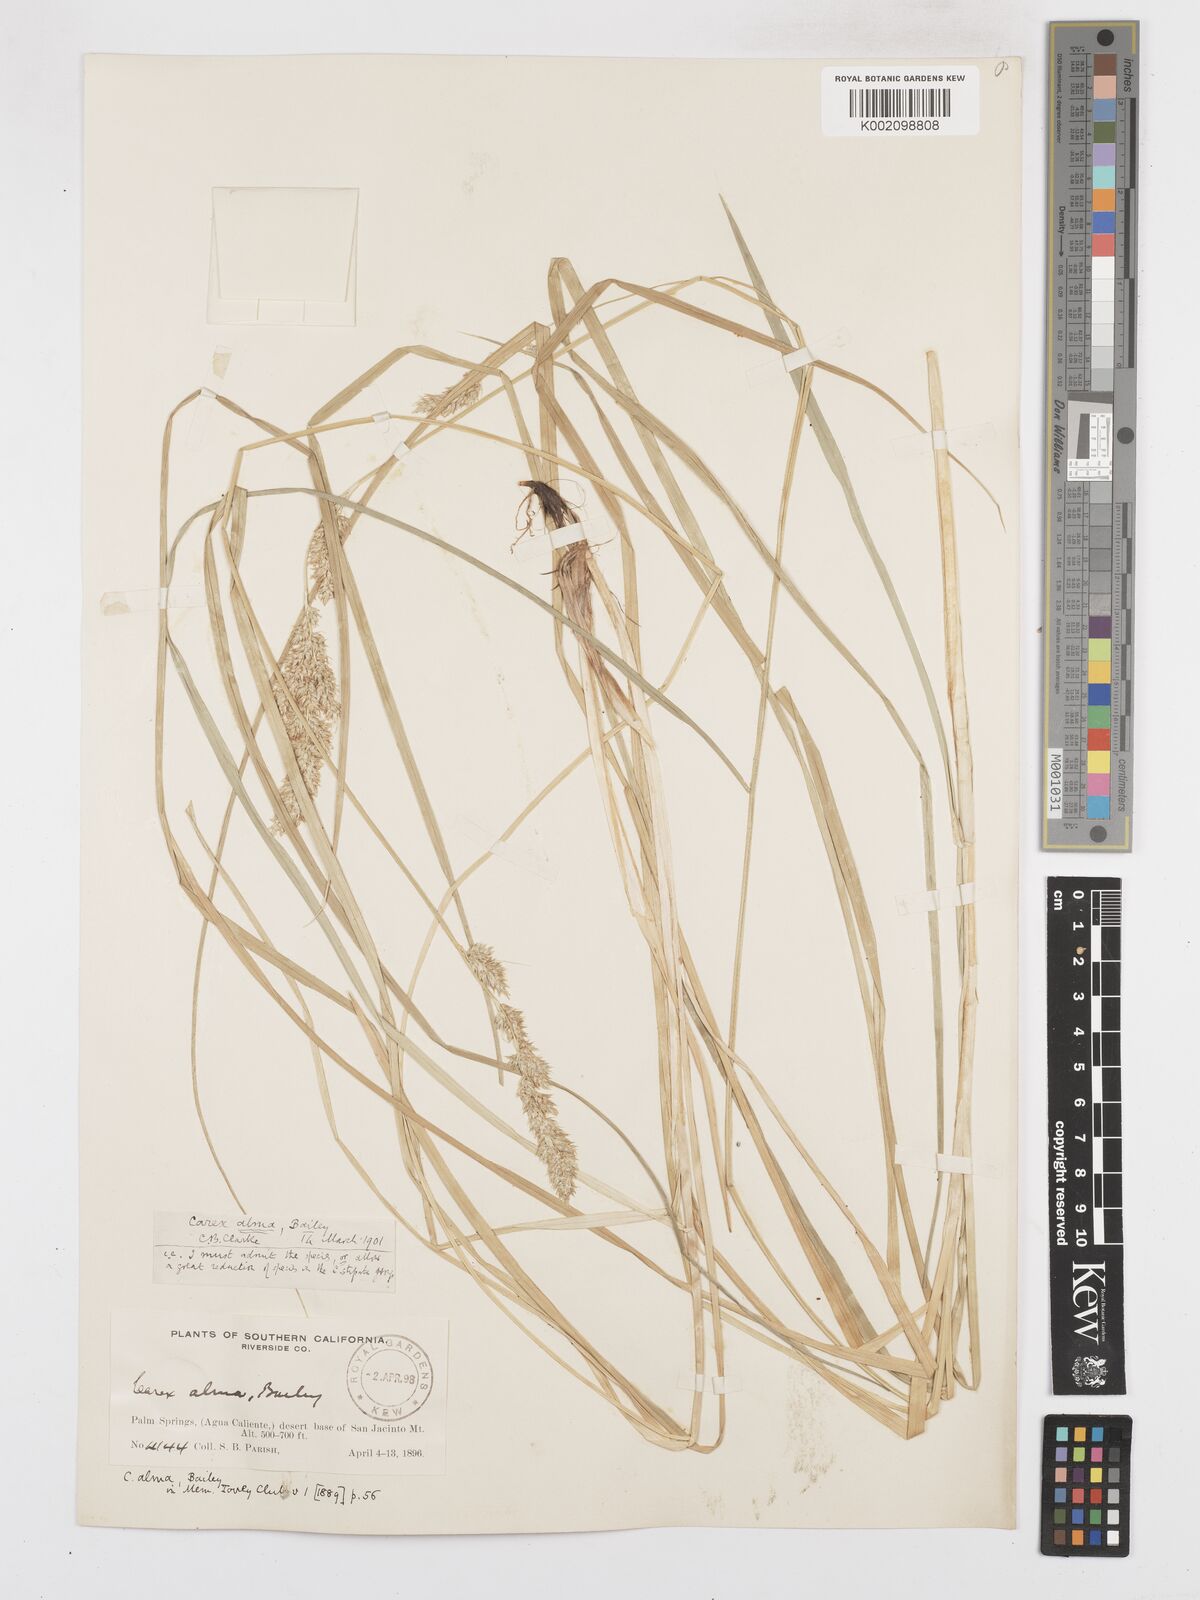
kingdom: Plantae
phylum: Tracheophyta
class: Liliopsida
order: Poales
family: Cyperaceae
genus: Carex
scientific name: Carex alma
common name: Alma sedge
